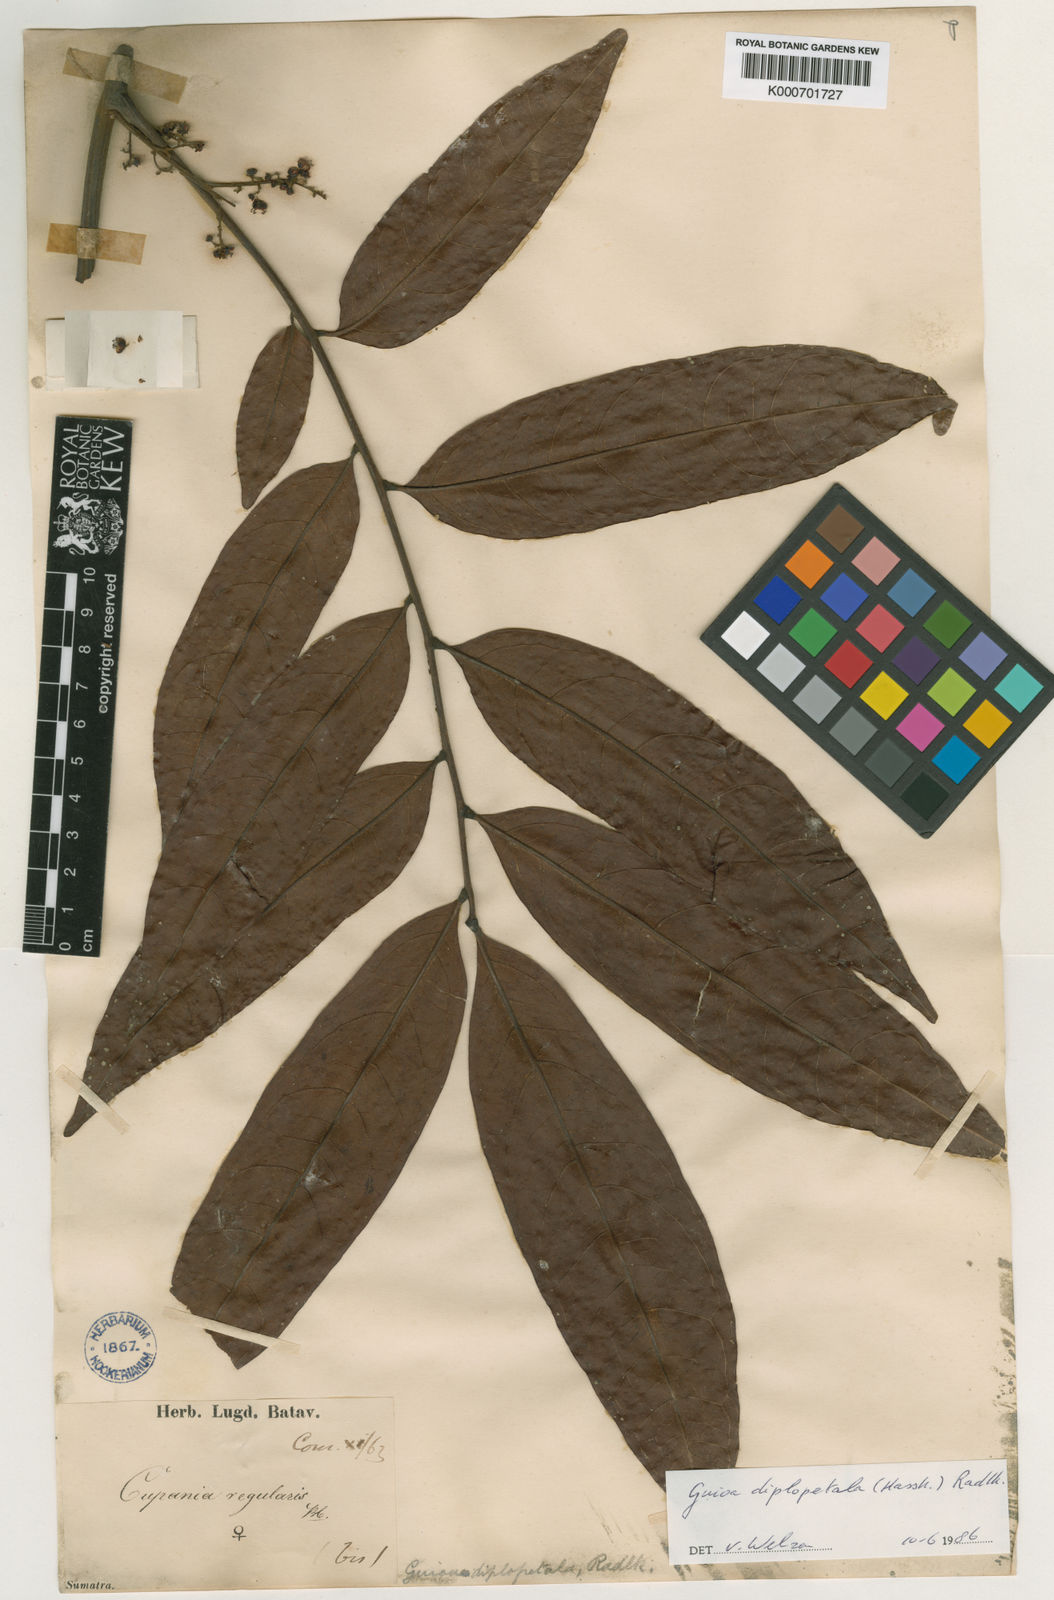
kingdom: Plantae
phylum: Tracheophyta
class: Magnoliopsida
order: Sapindales
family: Sapindaceae
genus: Guioa
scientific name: Guioa diplopetala
